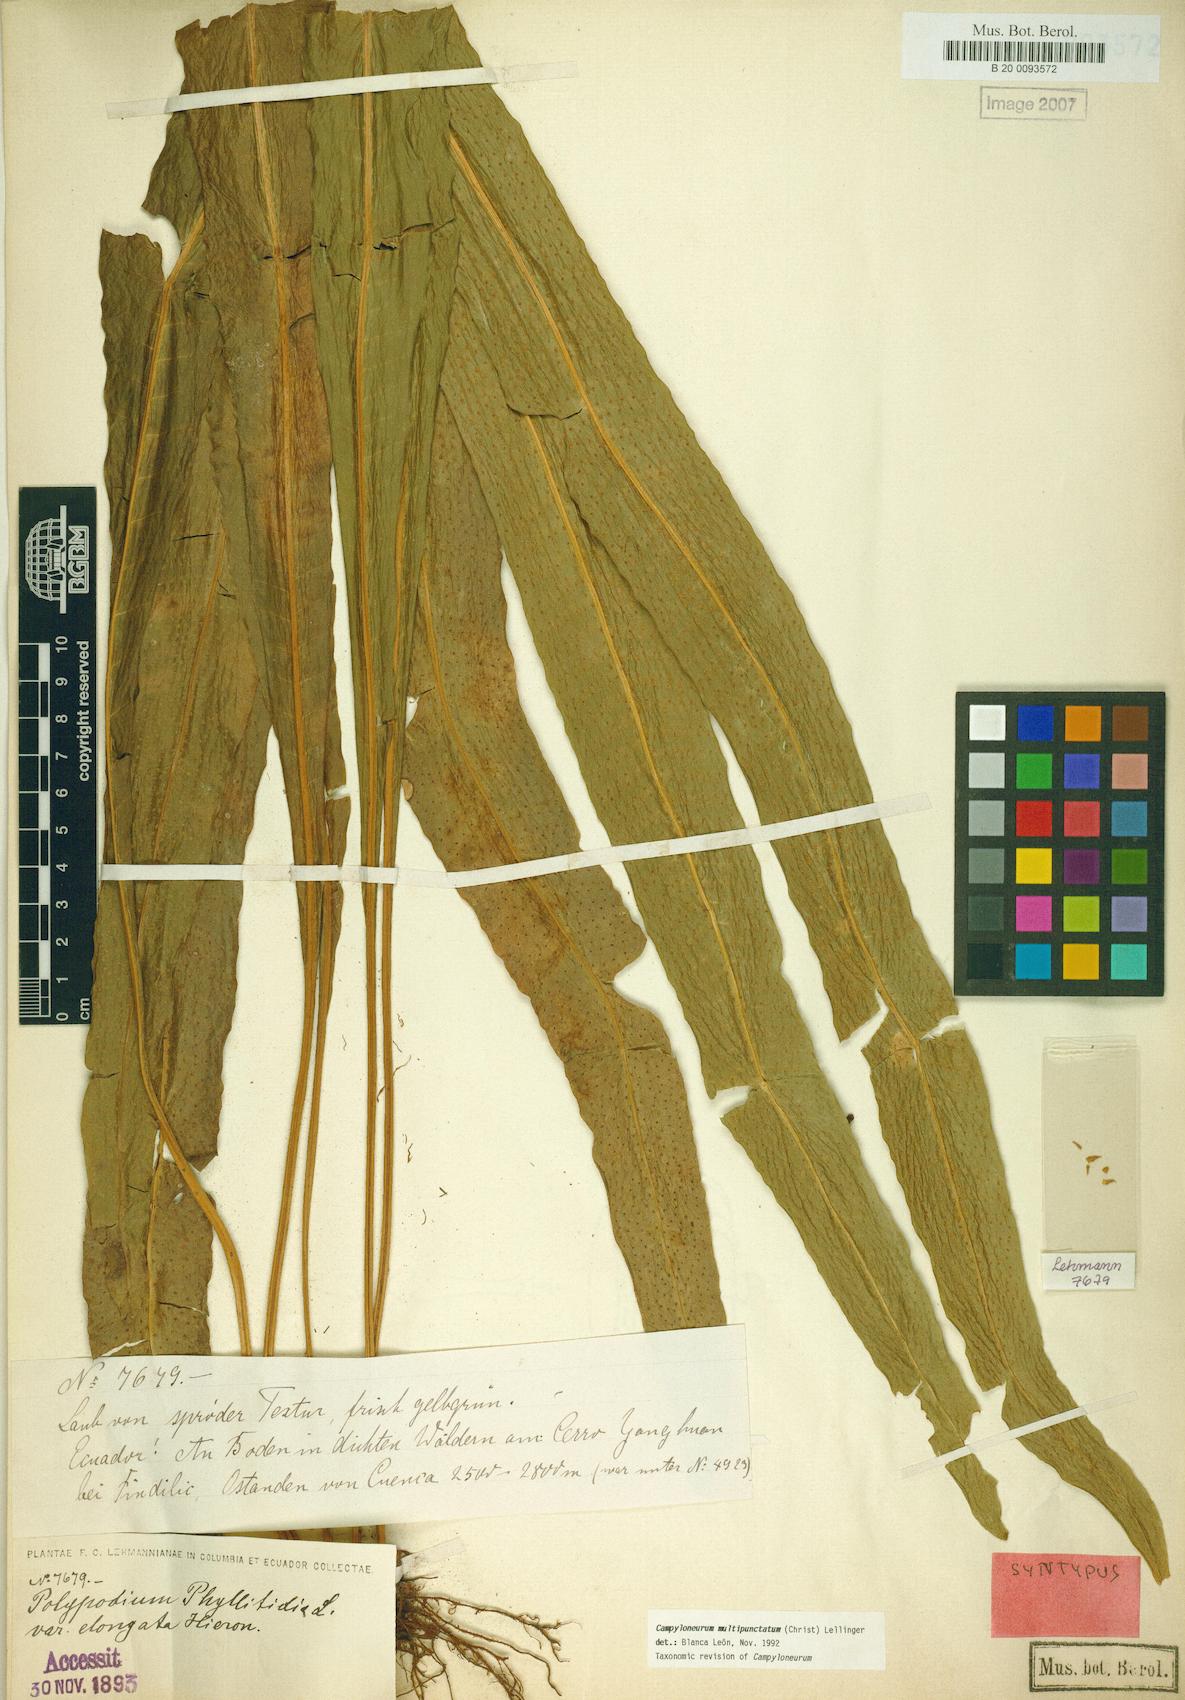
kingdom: Plantae
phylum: Tracheophyta
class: Polypodiopsida
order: Polypodiales
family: Polypodiaceae
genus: Campyloneurum
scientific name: Campyloneurum xalapense
